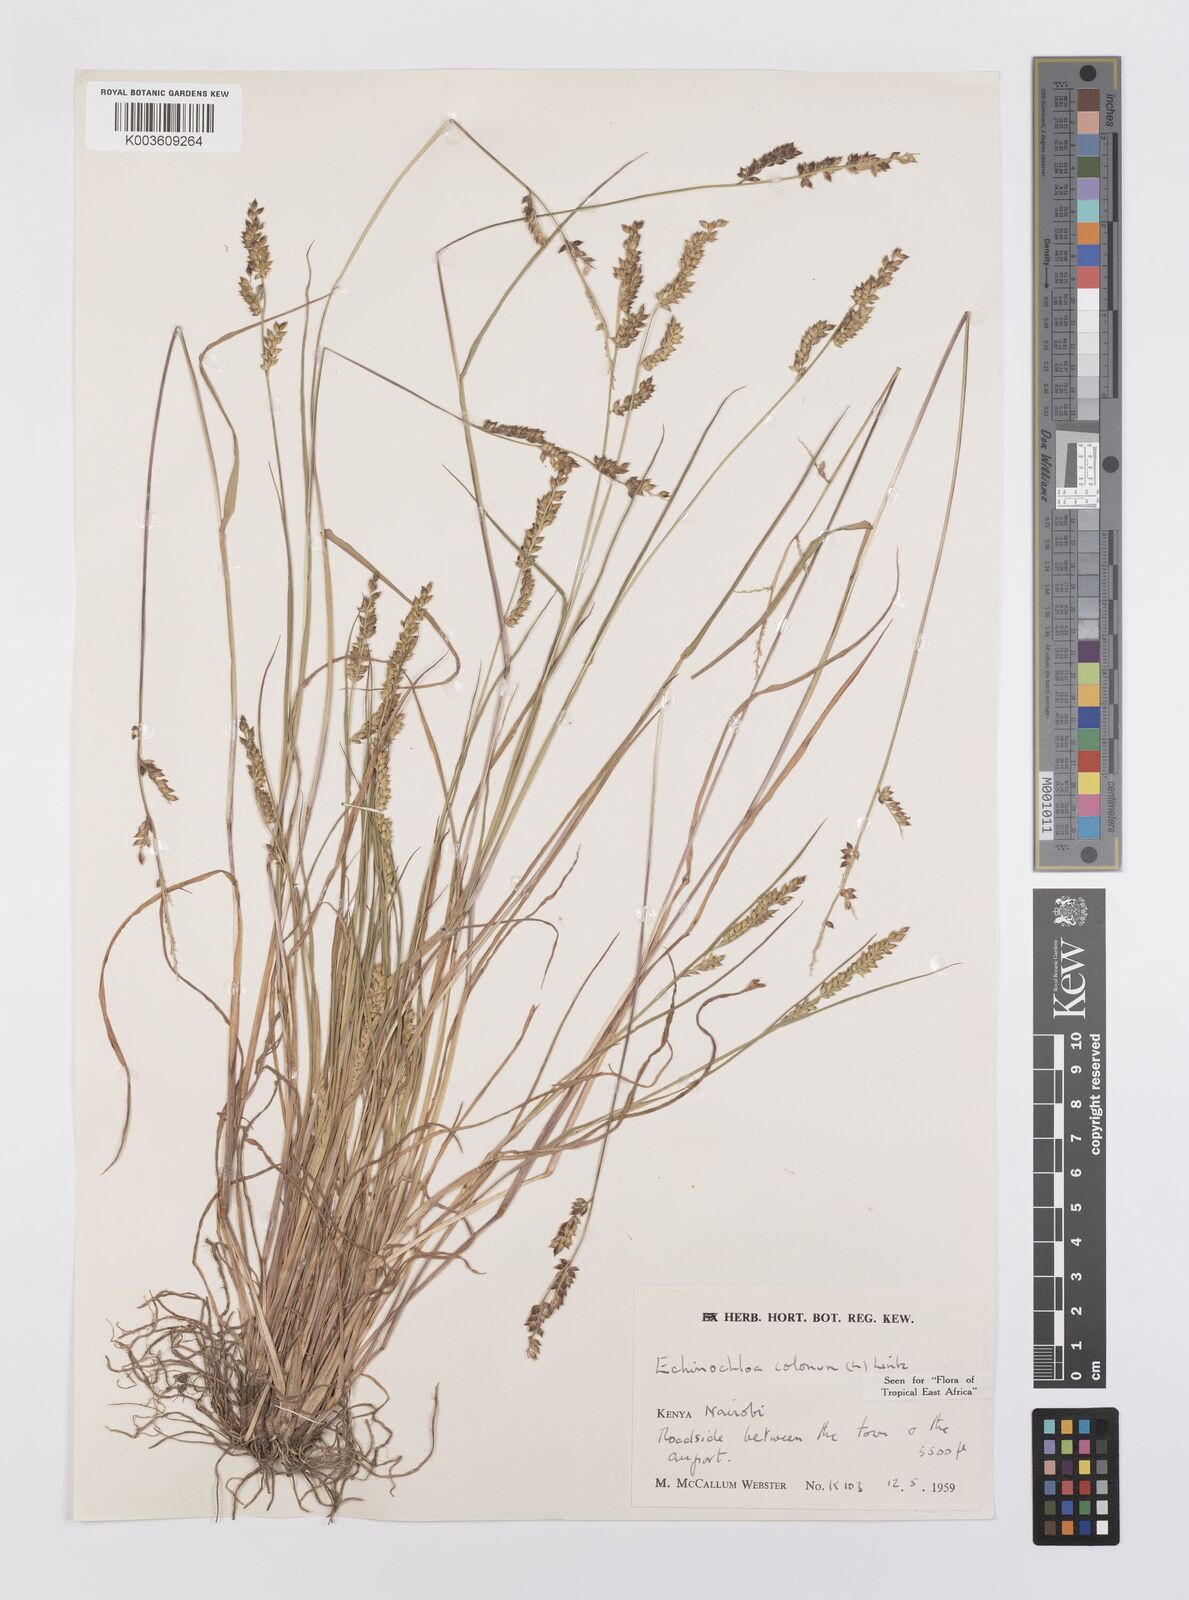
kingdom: Plantae
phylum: Tracheophyta
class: Liliopsida
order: Poales
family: Poaceae
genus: Echinochloa
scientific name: Echinochloa colonum
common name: Jungle rice
